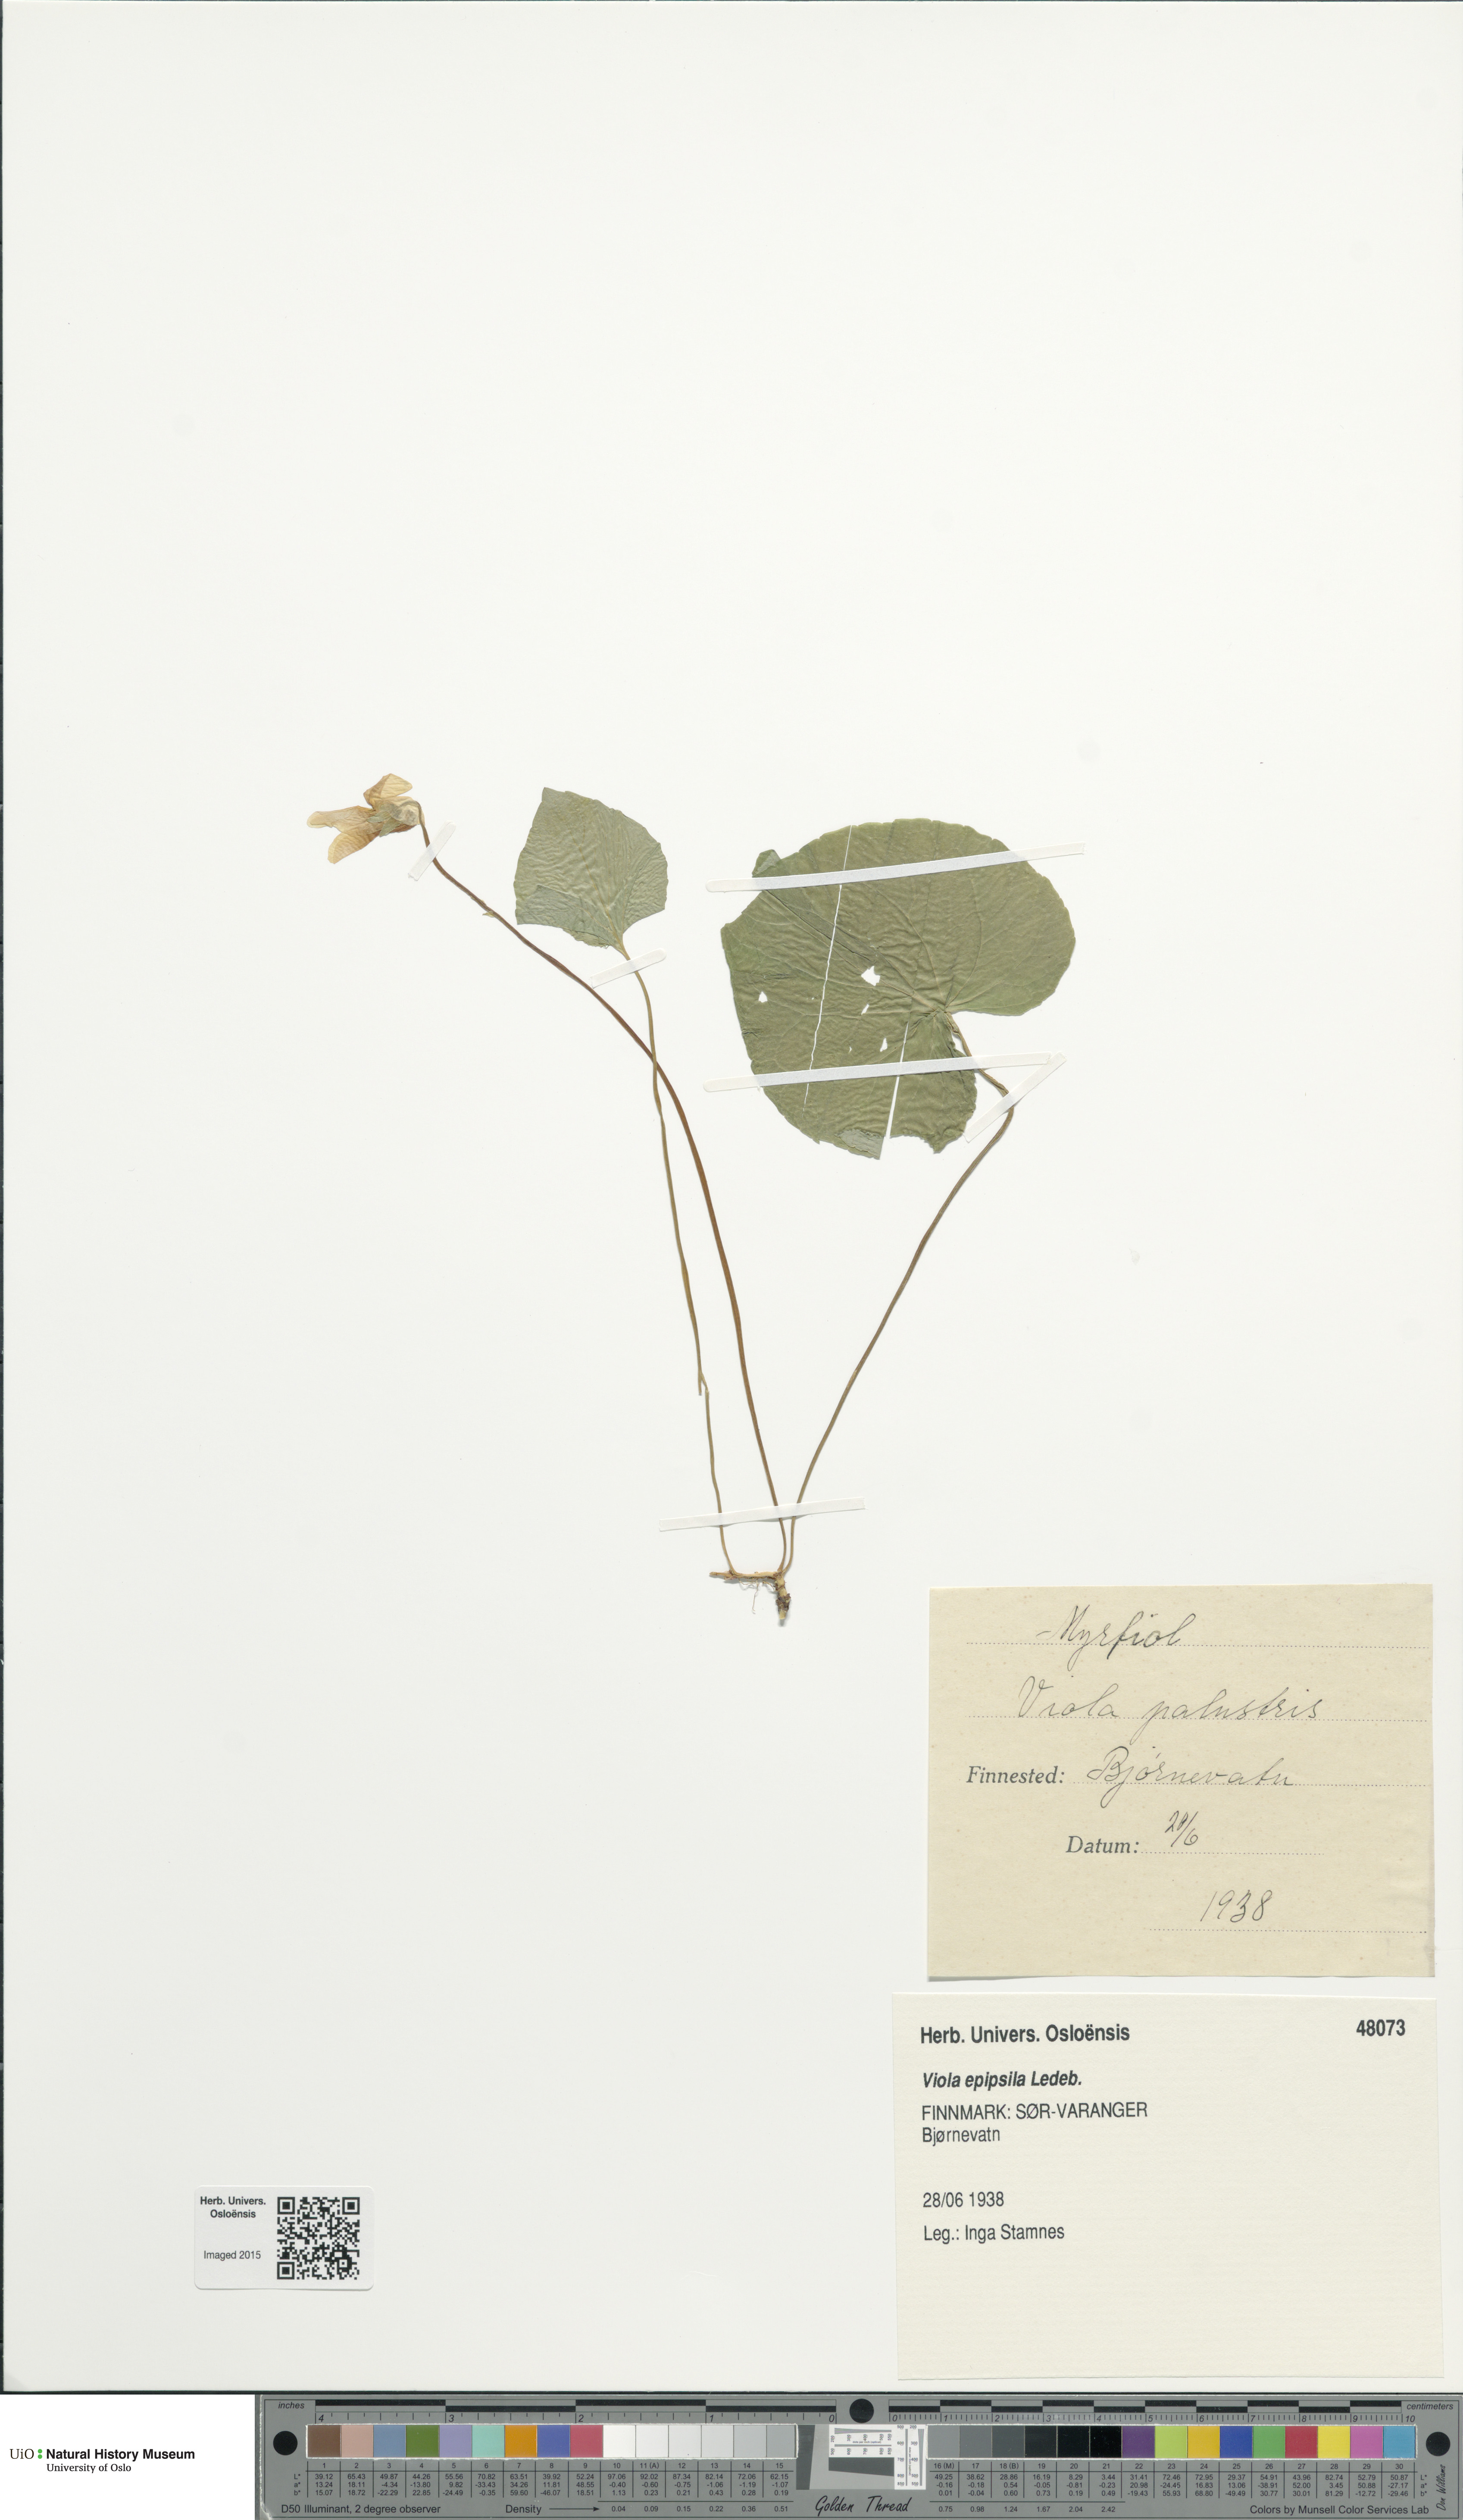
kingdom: Plantae
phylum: Tracheophyta
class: Magnoliopsida
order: Malpighiales
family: Violaceae
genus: Viola
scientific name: Viola epipsila
